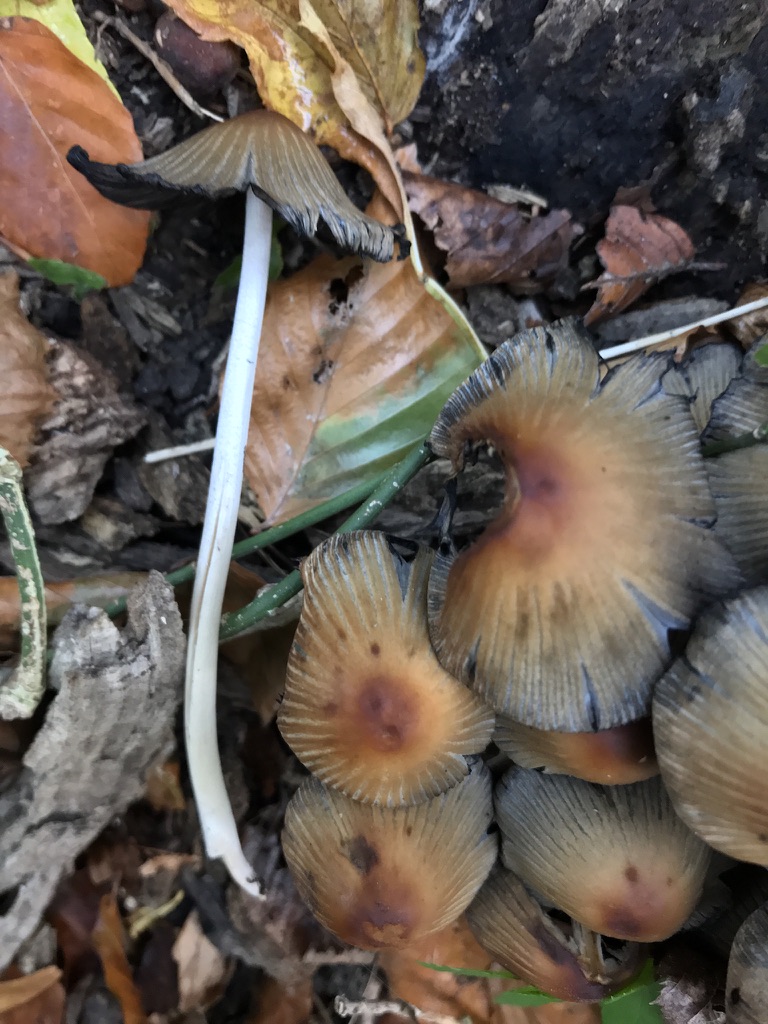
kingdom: Fungi
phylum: Basidiomycota
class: Agaricomycetes
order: Agaricales
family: Psathyrellaceae
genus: Coprinellus
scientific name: Coprinellus micaceus
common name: glimmer-blækhat
